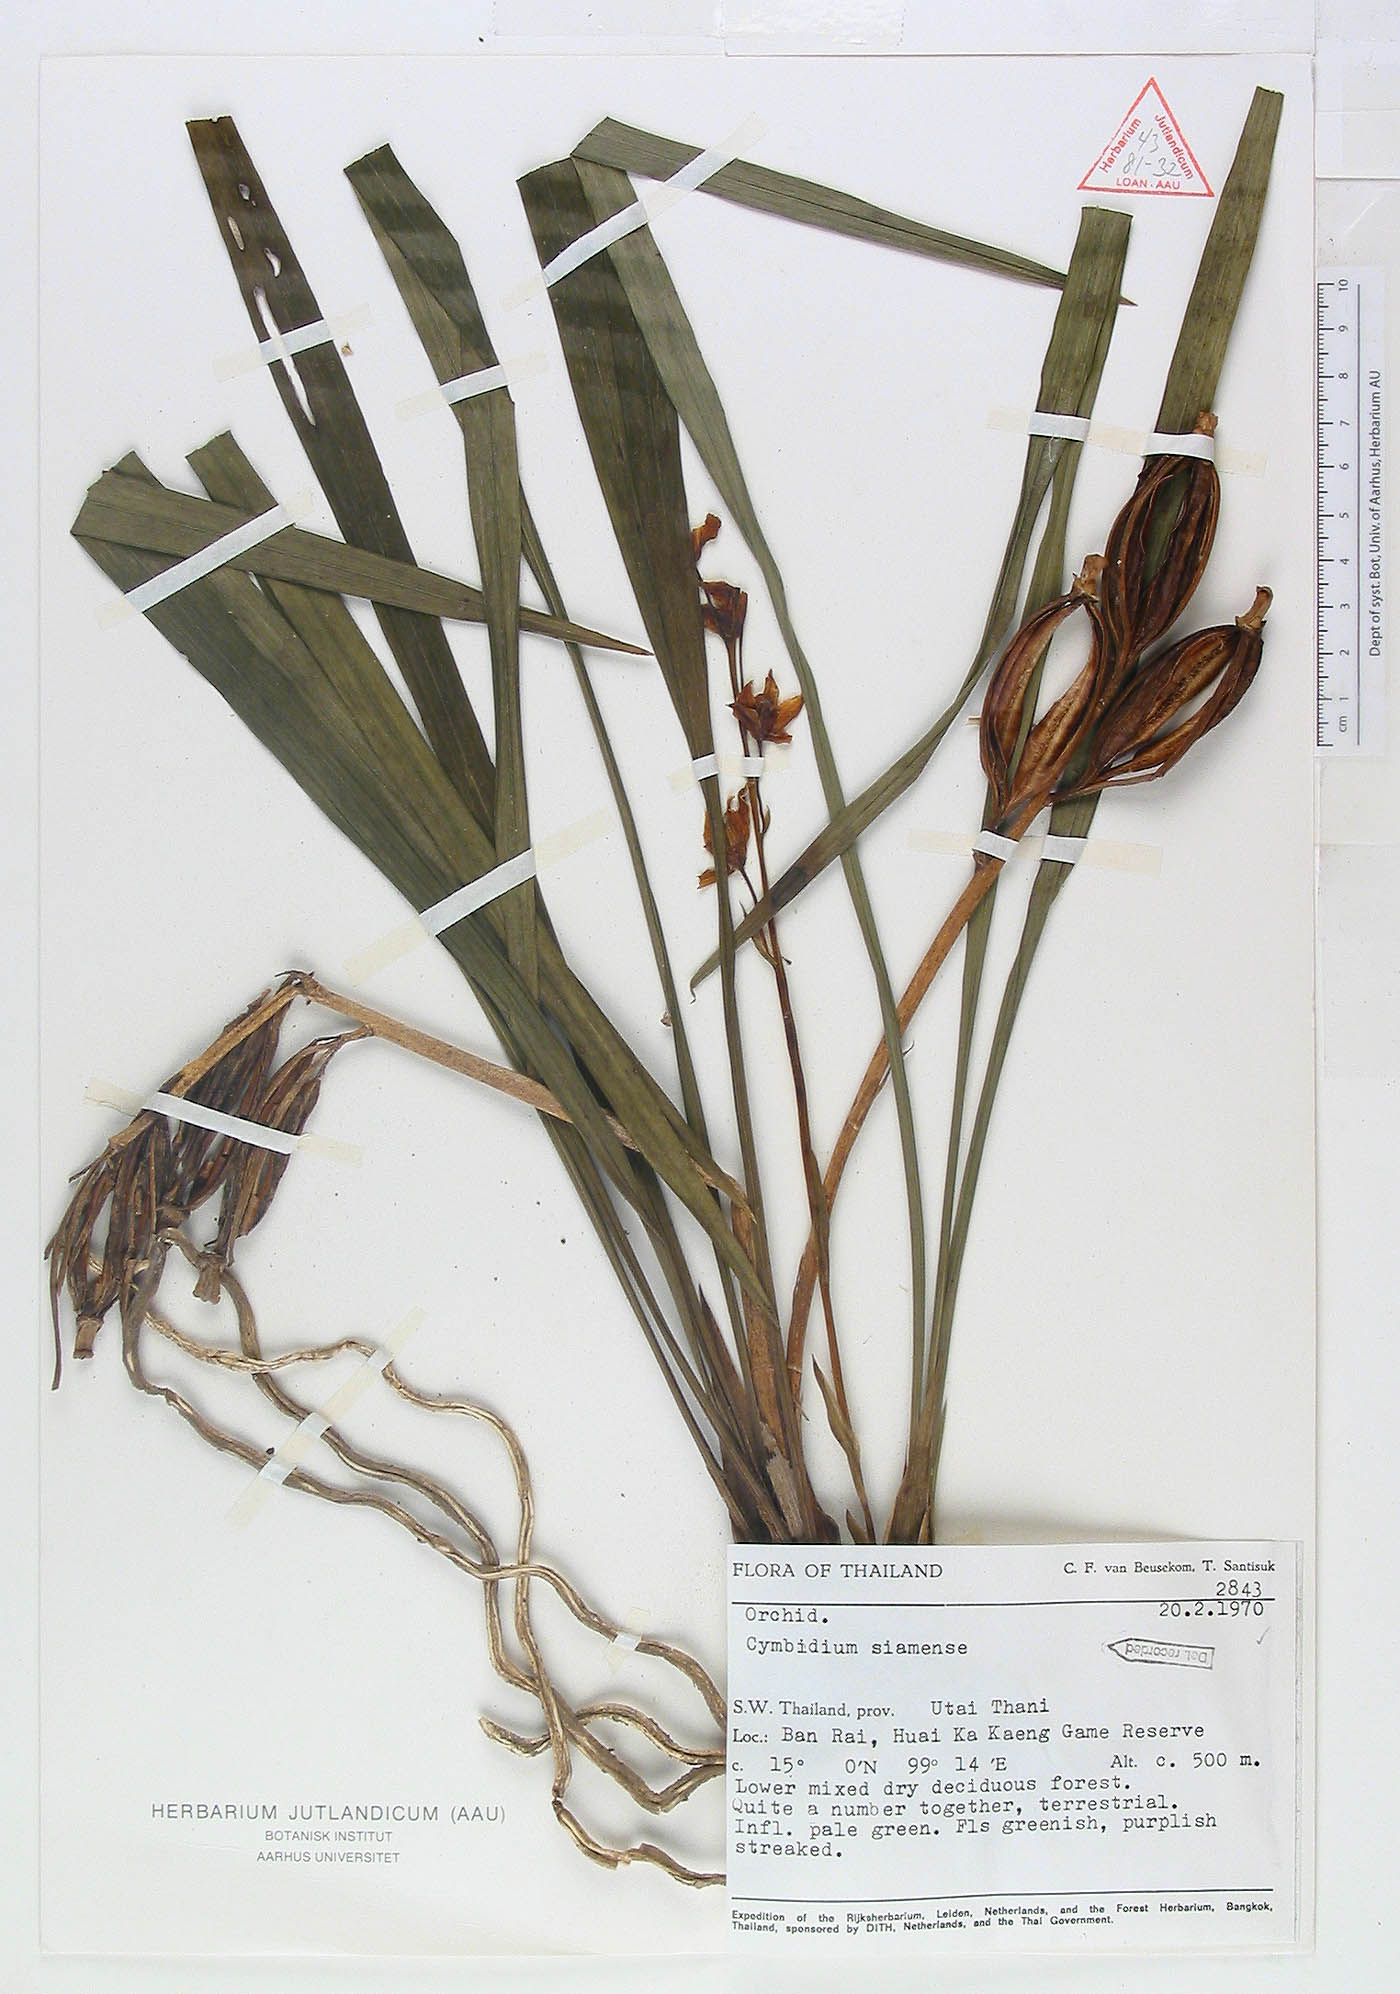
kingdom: Plantae
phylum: Tracheophyta
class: Liliopsida
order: Asparagales
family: Orchidaceae
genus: Cymbidium
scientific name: Cymbidium haematodes
